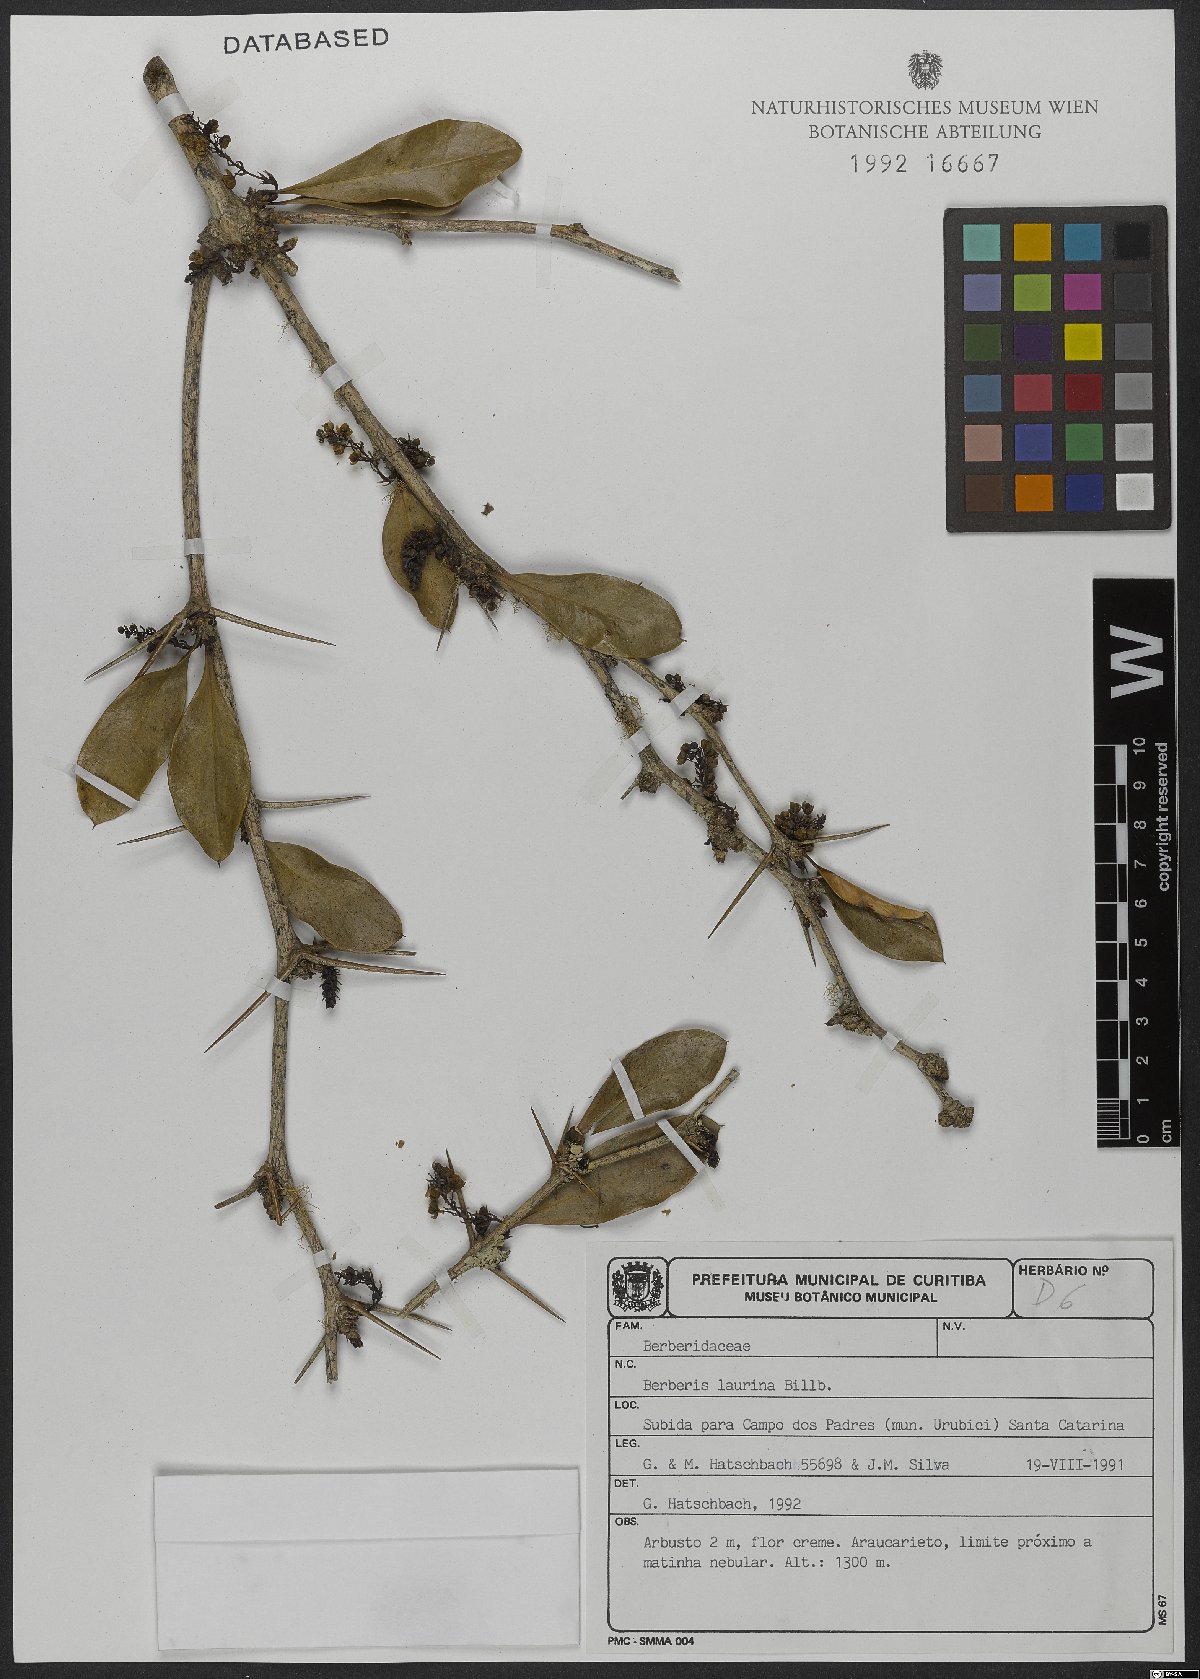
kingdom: Plantae
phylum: Tracheophyta
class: Magnoliopsida
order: Ranunculales
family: Berberidaceae
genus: Berberis
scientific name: Berberis laurina
